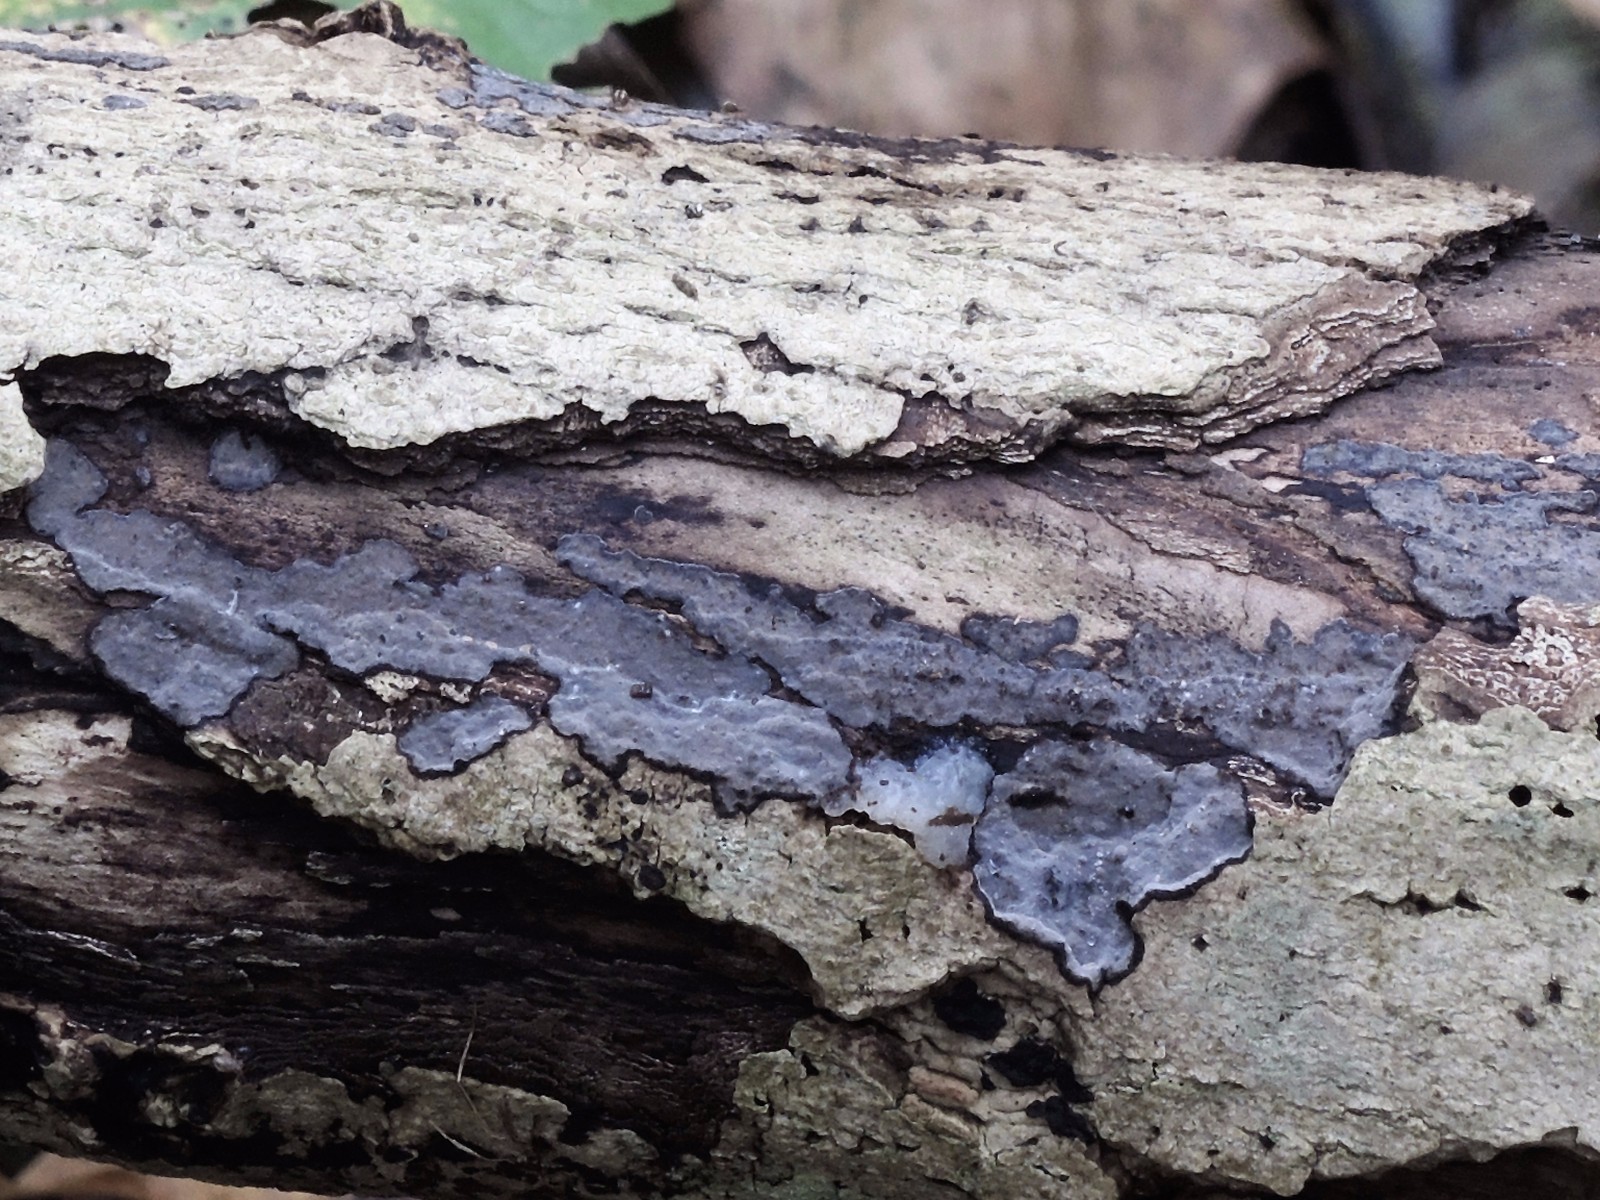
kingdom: Fungi
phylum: Basidiomycota
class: Agaricomycetes
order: Russulales
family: Peniophoraceae
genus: Peniophora
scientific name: Peniophora limitata
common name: mørkrandet voksskind
